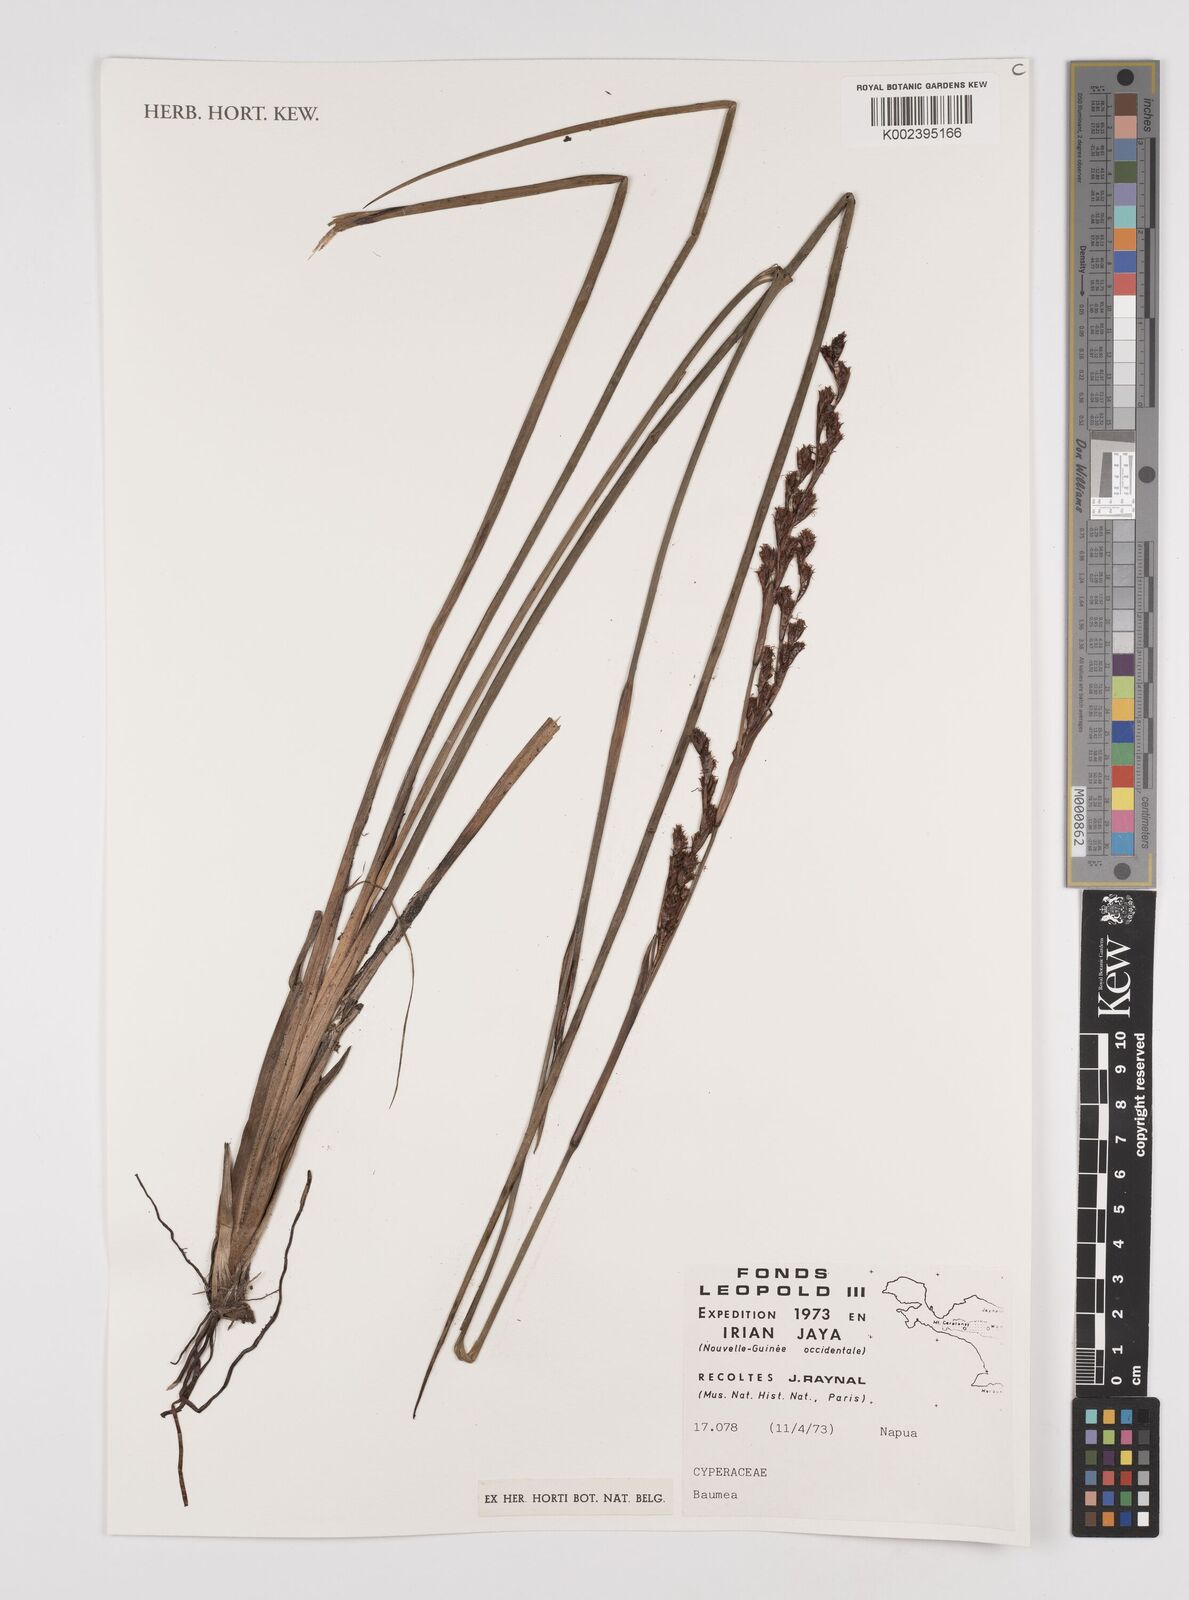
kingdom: Plantae
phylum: Tracheophyta
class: Liliopsida
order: Poales
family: Cyperaceae
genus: Machaerina
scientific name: Machaerina
